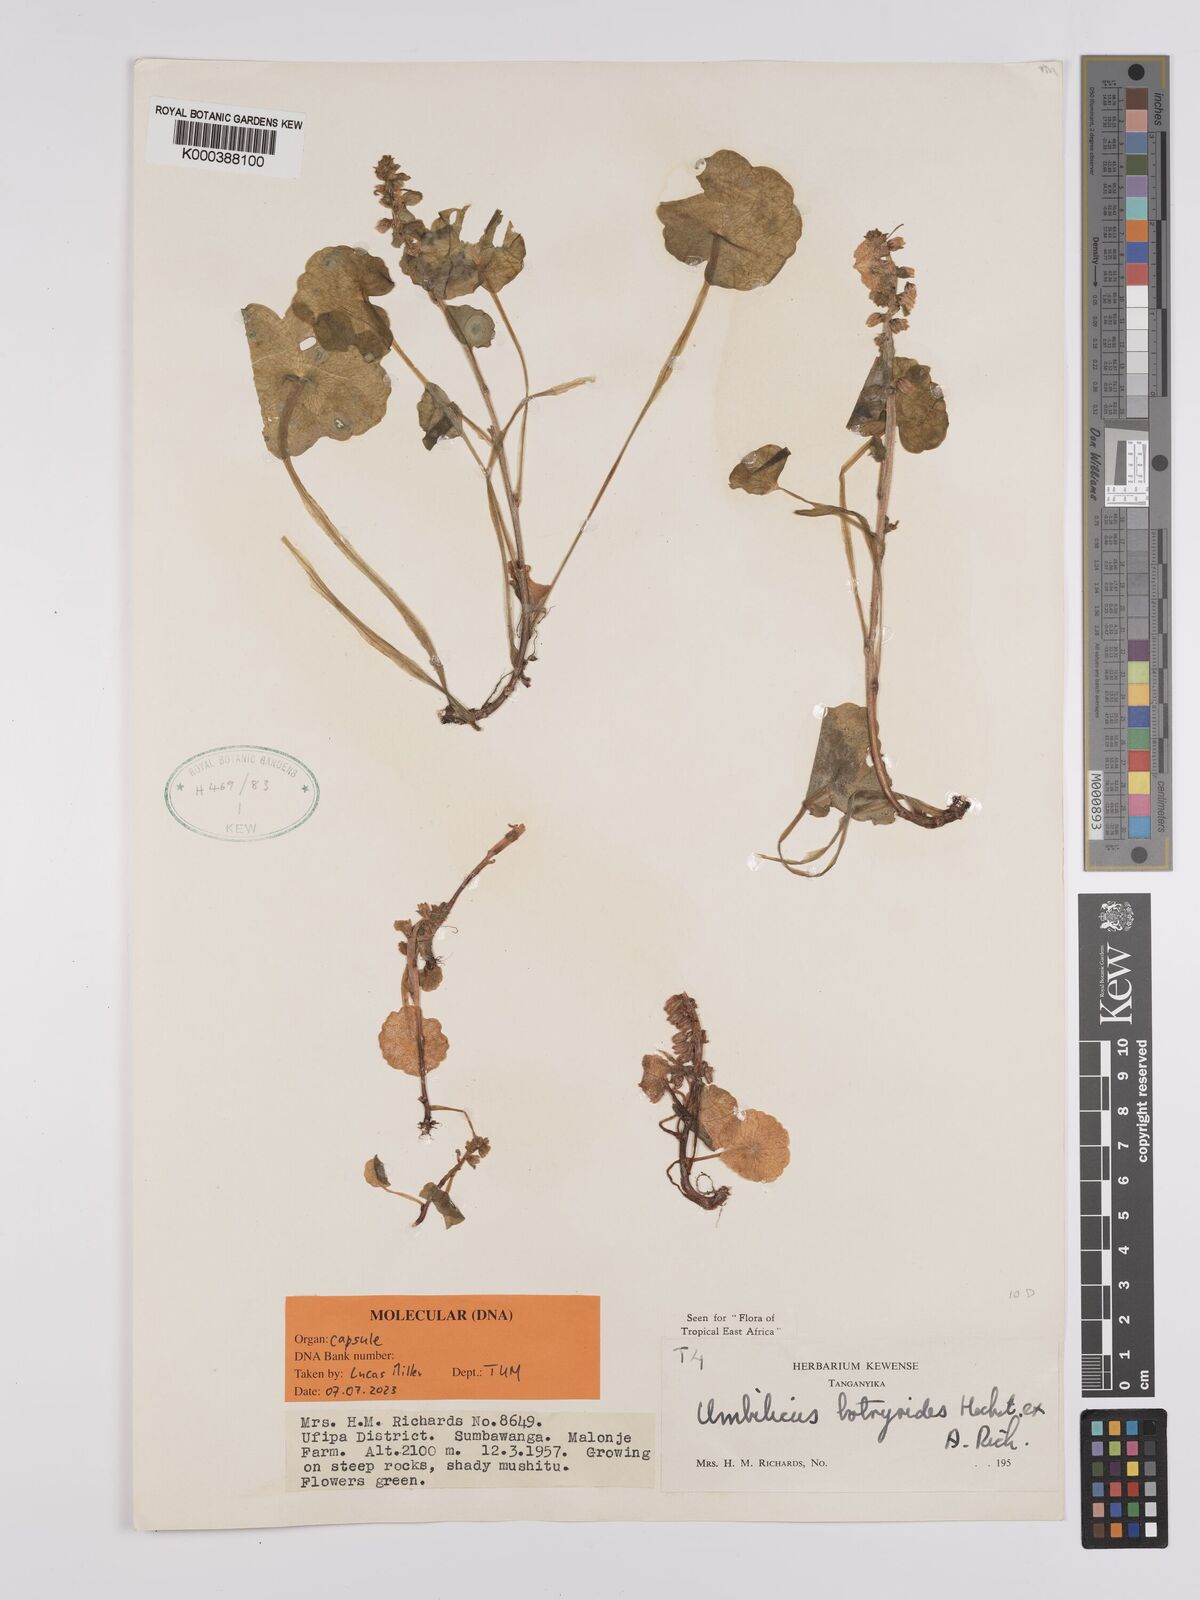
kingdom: Plantae
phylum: Tracheophyta
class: Magnoliopsida
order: Saxifragales
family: Crassulaceae
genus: Umbilicus
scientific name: Umbilicus botryoides
